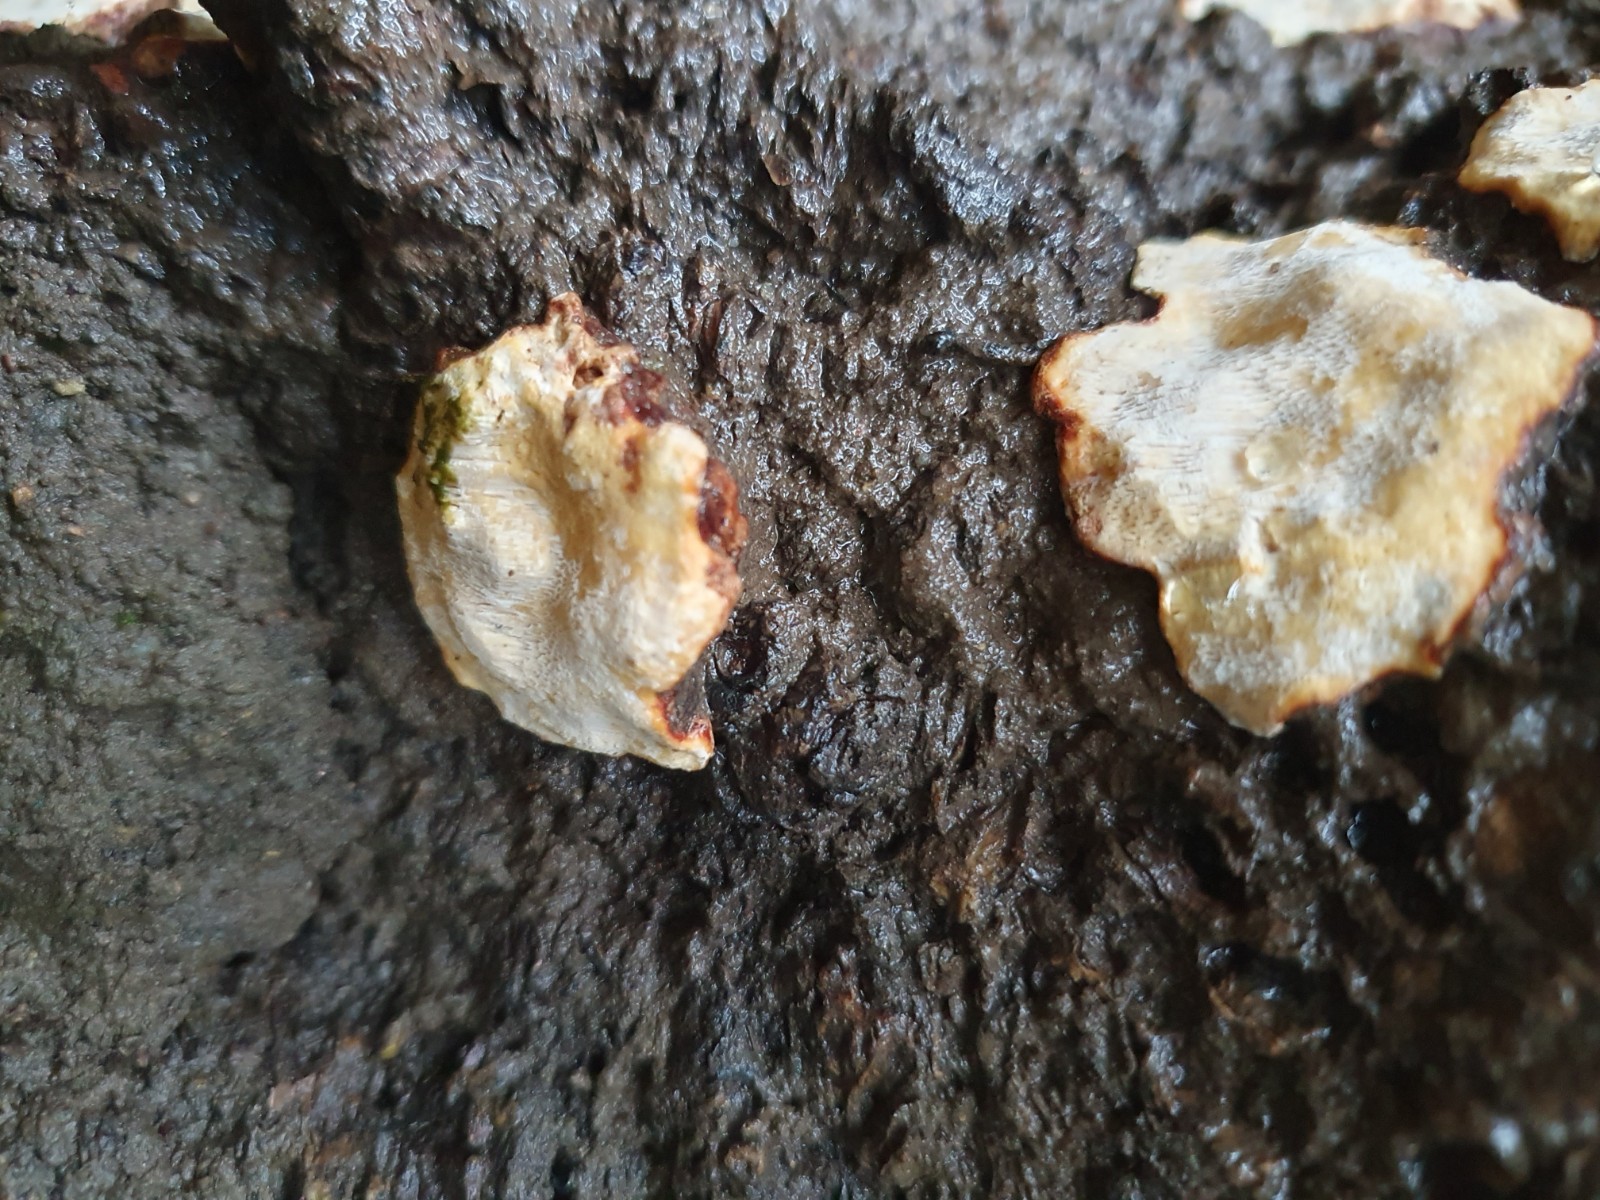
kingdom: Fungi
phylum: Basidiomycota
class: Agaricomycetes
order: Russulales
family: Bondarzewiaceae
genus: Heterobasidion
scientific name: Heterobasidion annosum
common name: almindelig rodfordærver
